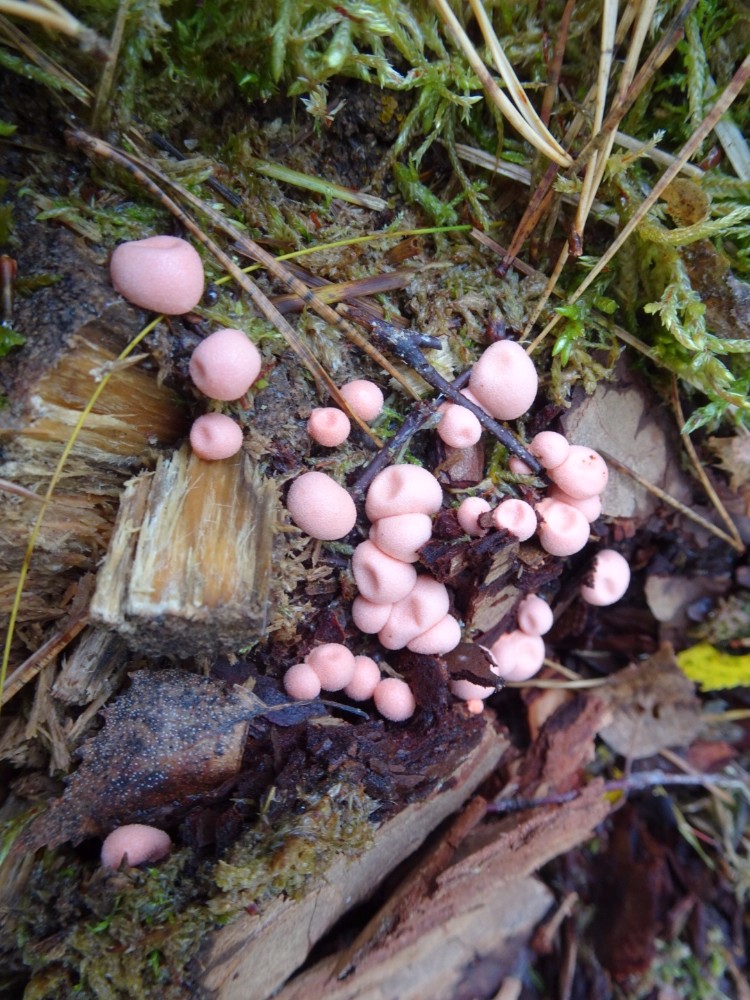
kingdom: Protozoa
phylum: Mycetozoa
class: Myxomycetes
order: Cribrariales
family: Tubiferaceae
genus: Lycogala
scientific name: Lycogala epidendrum
